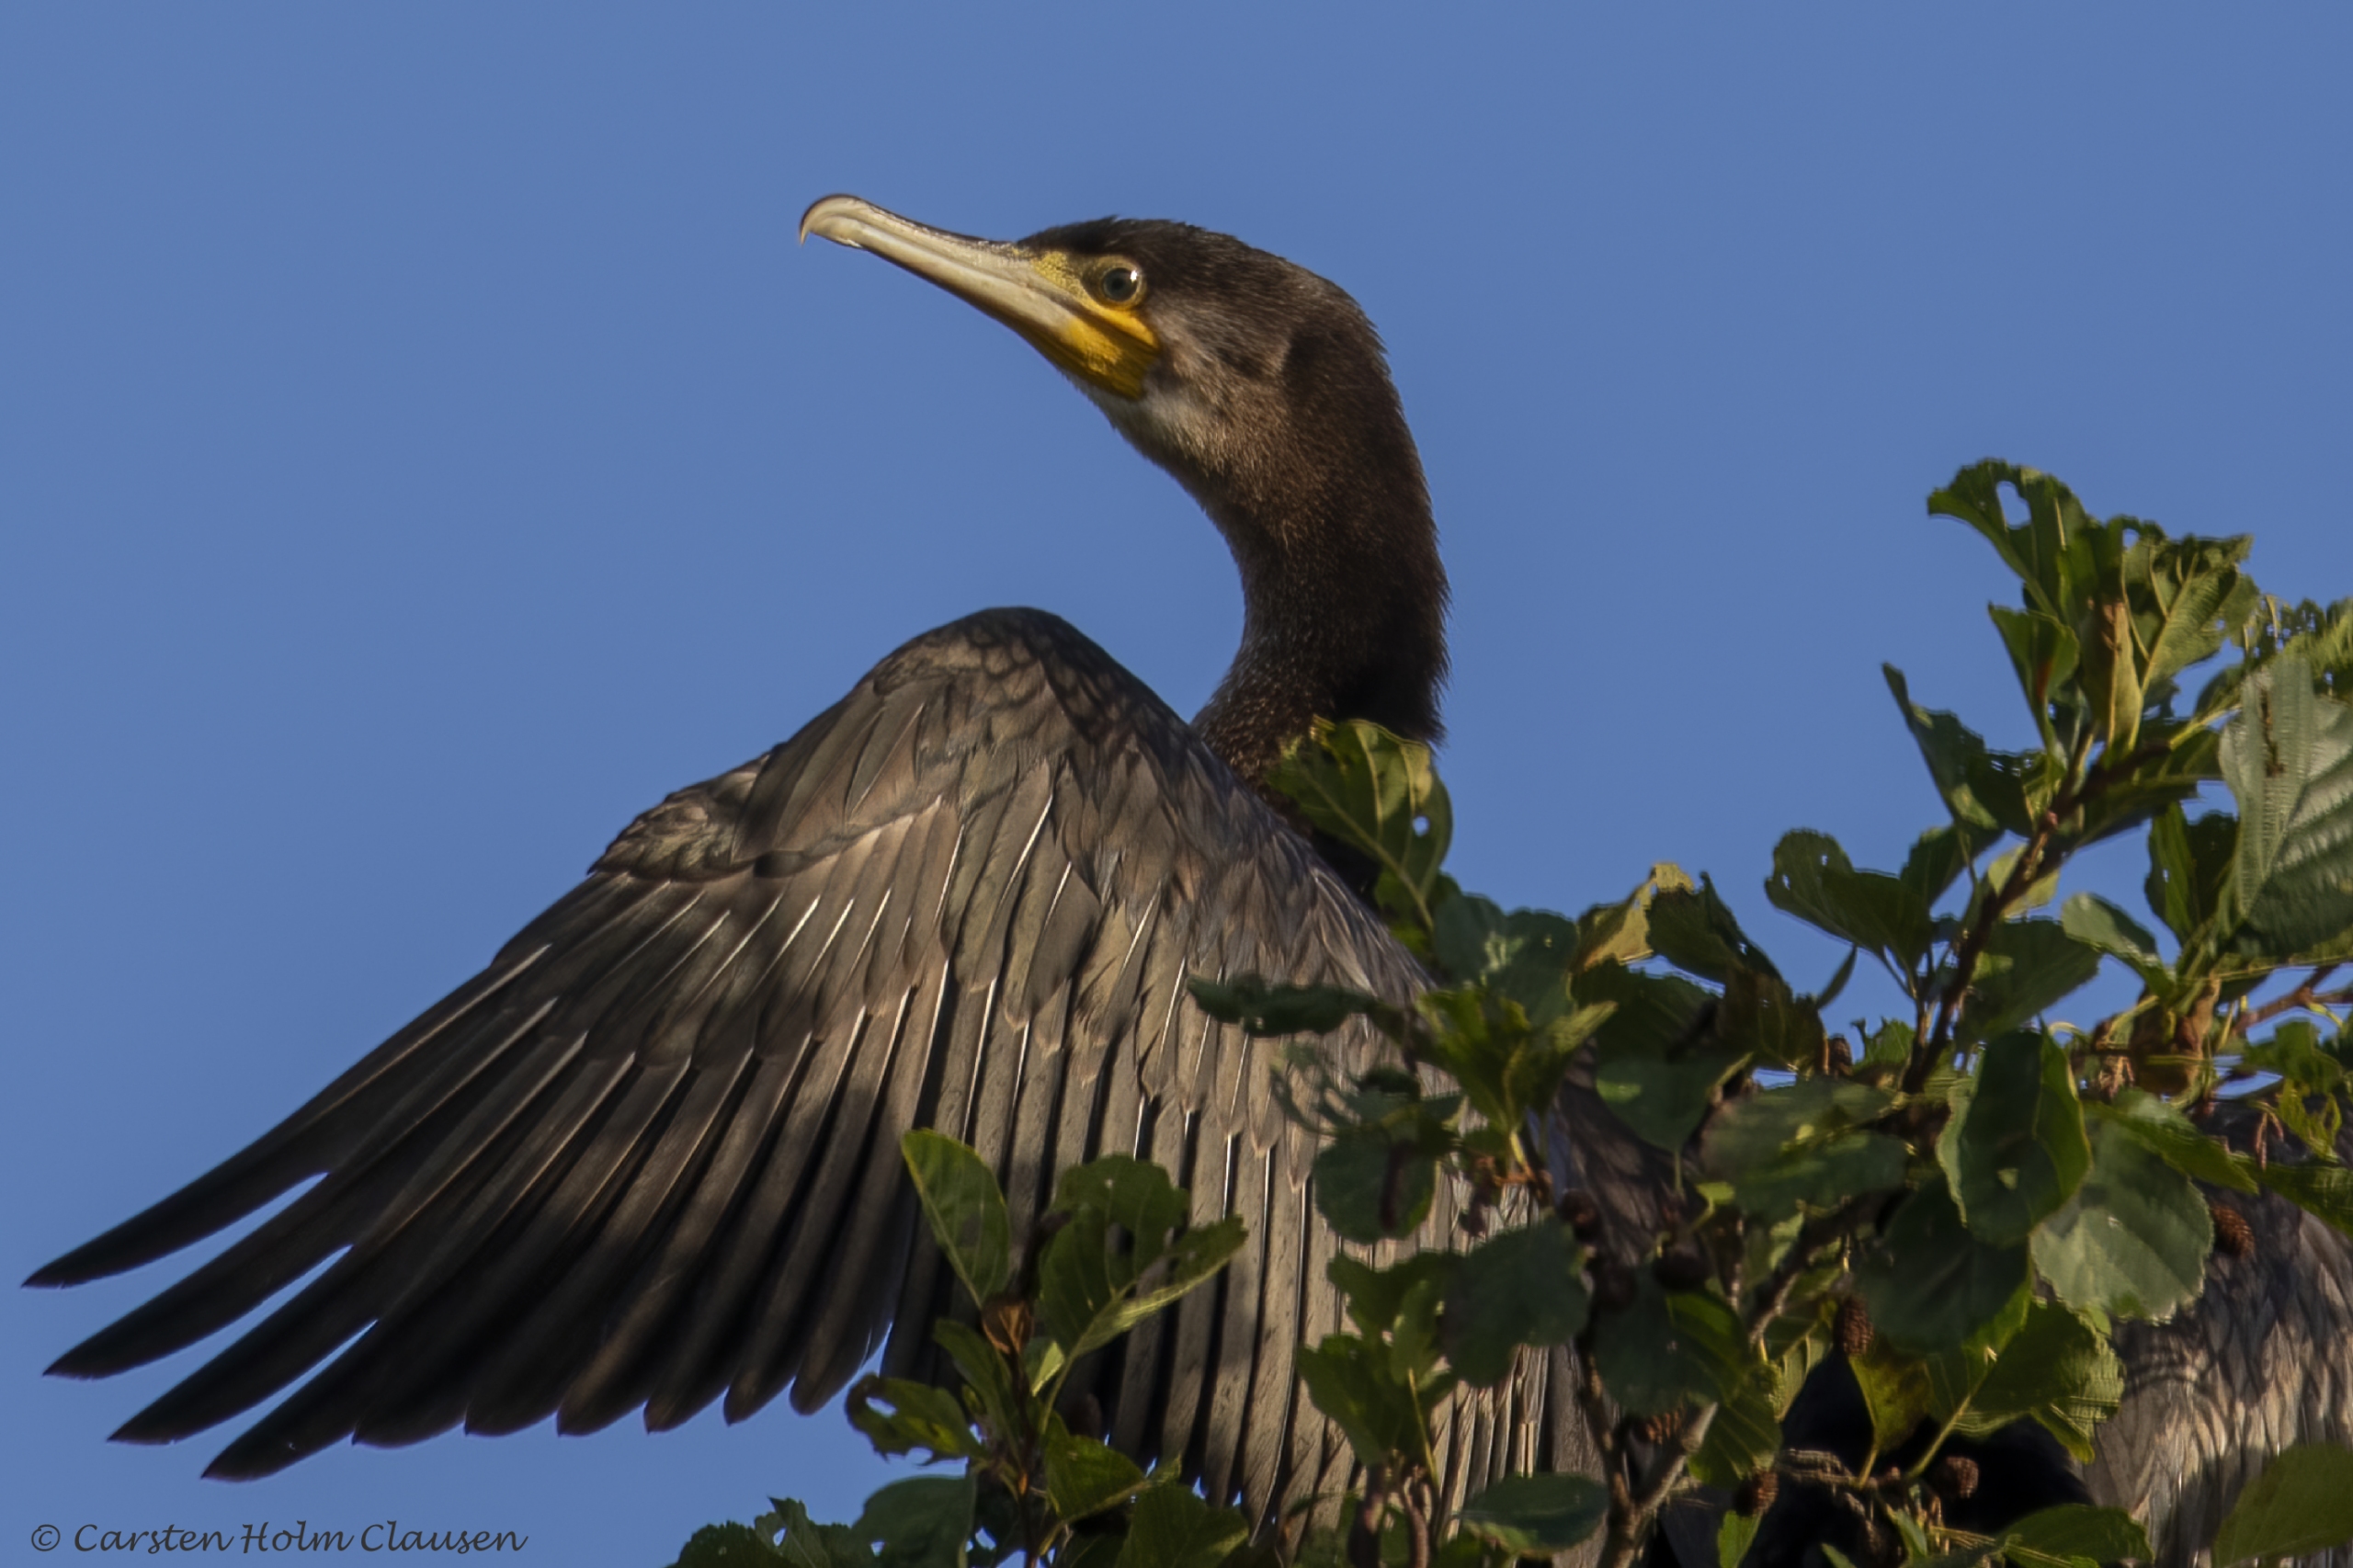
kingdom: Animalia
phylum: Chordata
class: Aves
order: Suliformes
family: Phalacrocoracidae
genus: Phalacrocorax
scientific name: Phalacrocorax carbo
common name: Skarv
